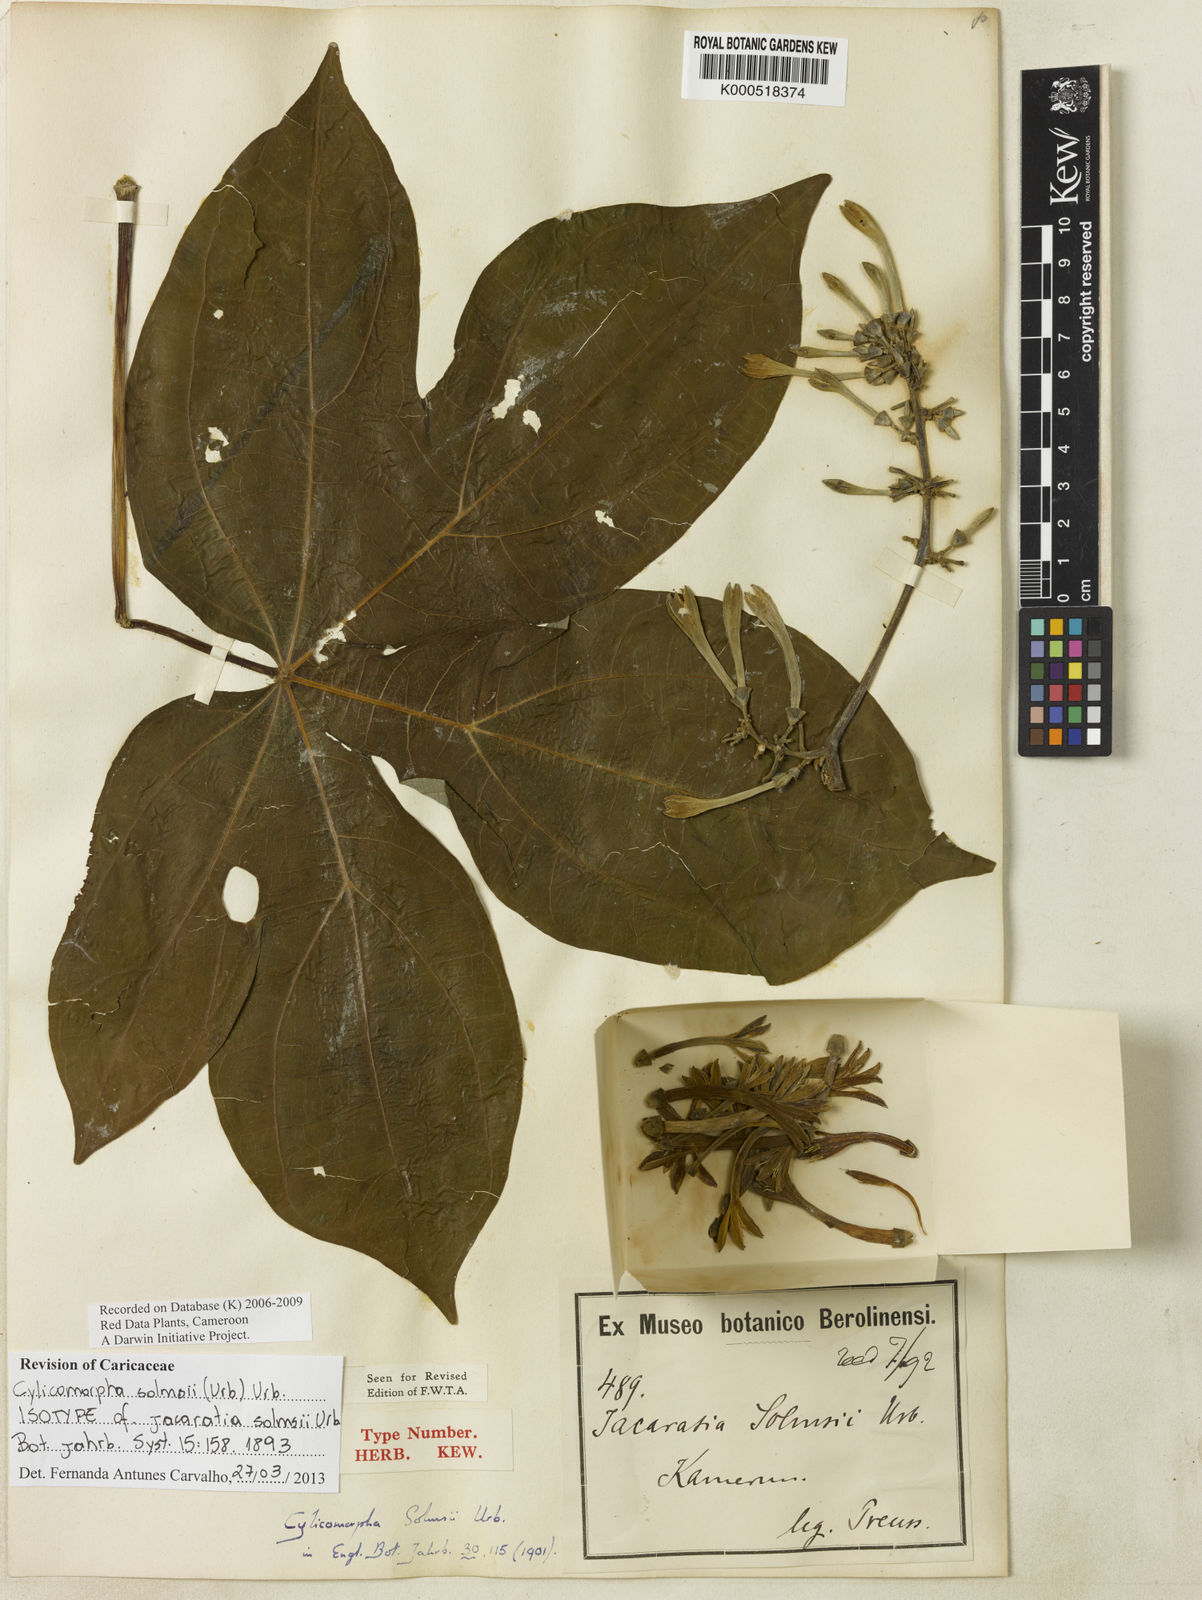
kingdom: Plantae
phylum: Tracheophyta
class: Magnoliopsida
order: Brassicales
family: Caricaceae
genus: Cylicomorpha
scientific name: Cylicomorpha solmsii
